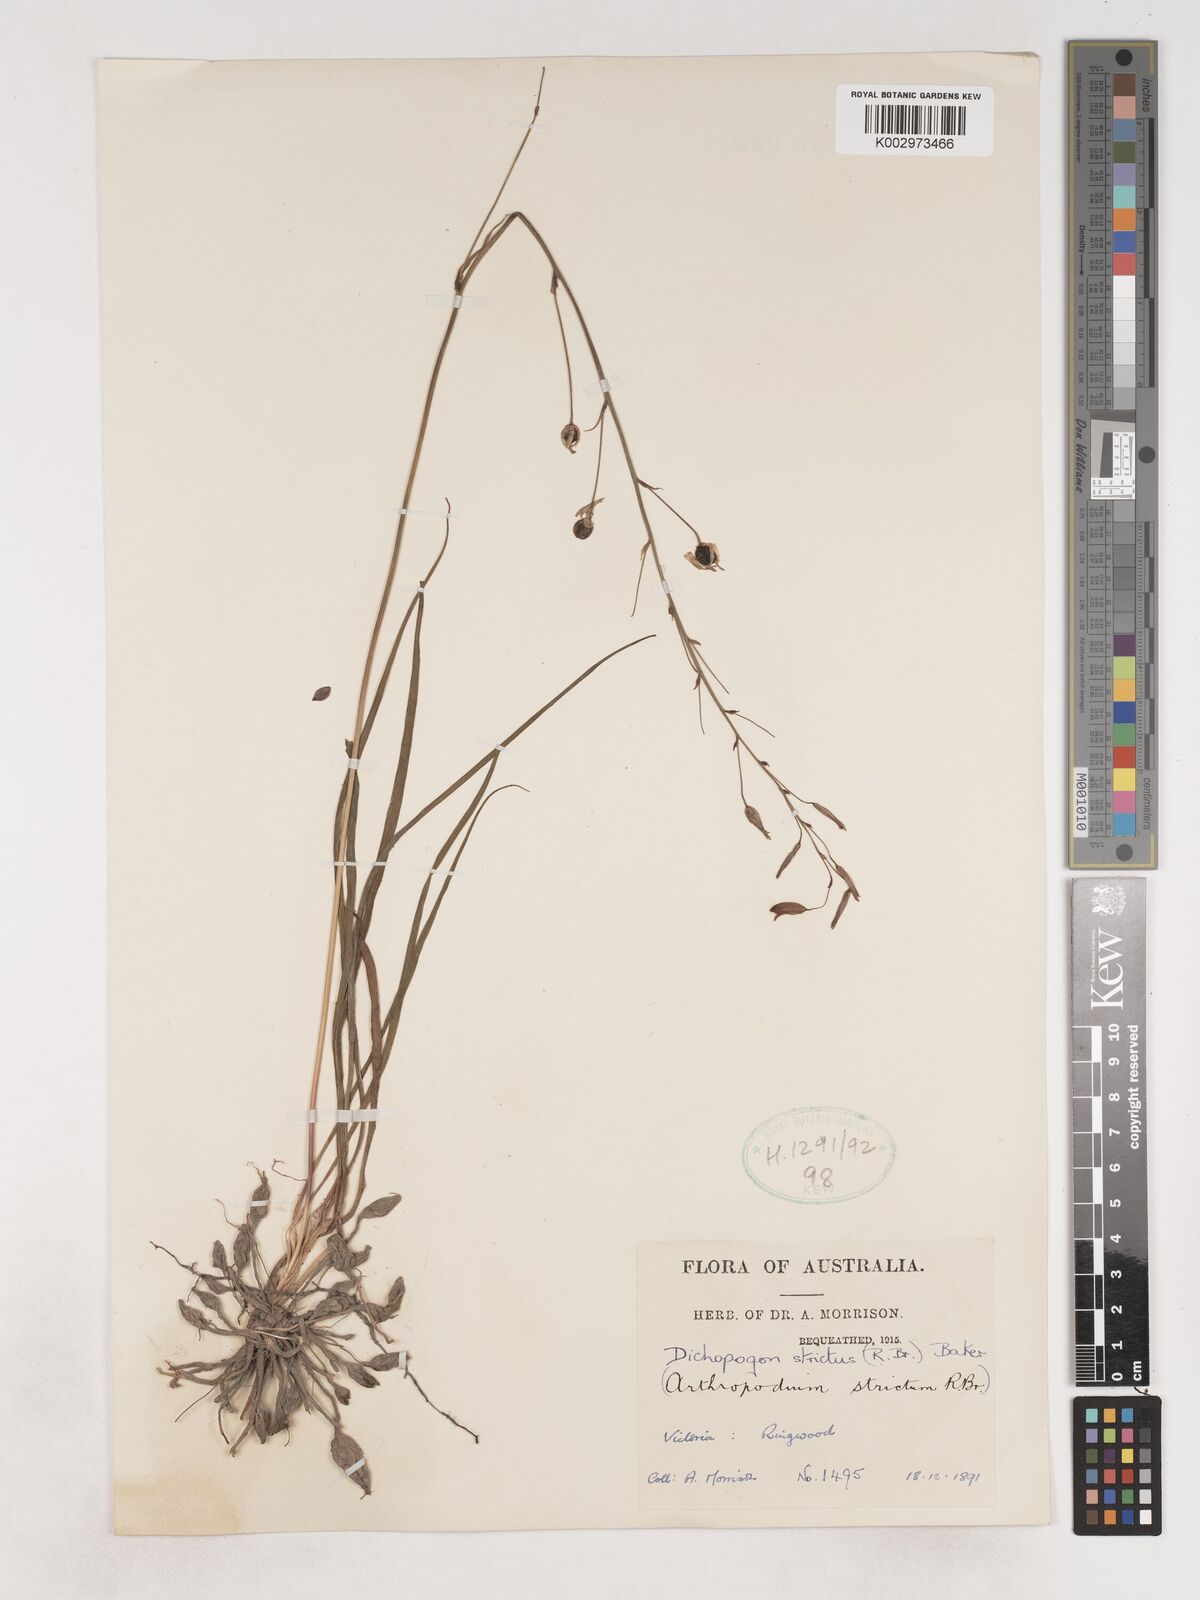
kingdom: Plantae
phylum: Tracheophyta
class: Liliopsida
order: Asparagales
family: Asparagaceae
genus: Arthropodium
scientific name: Arthropodium strictum
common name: Chocolate-lily
